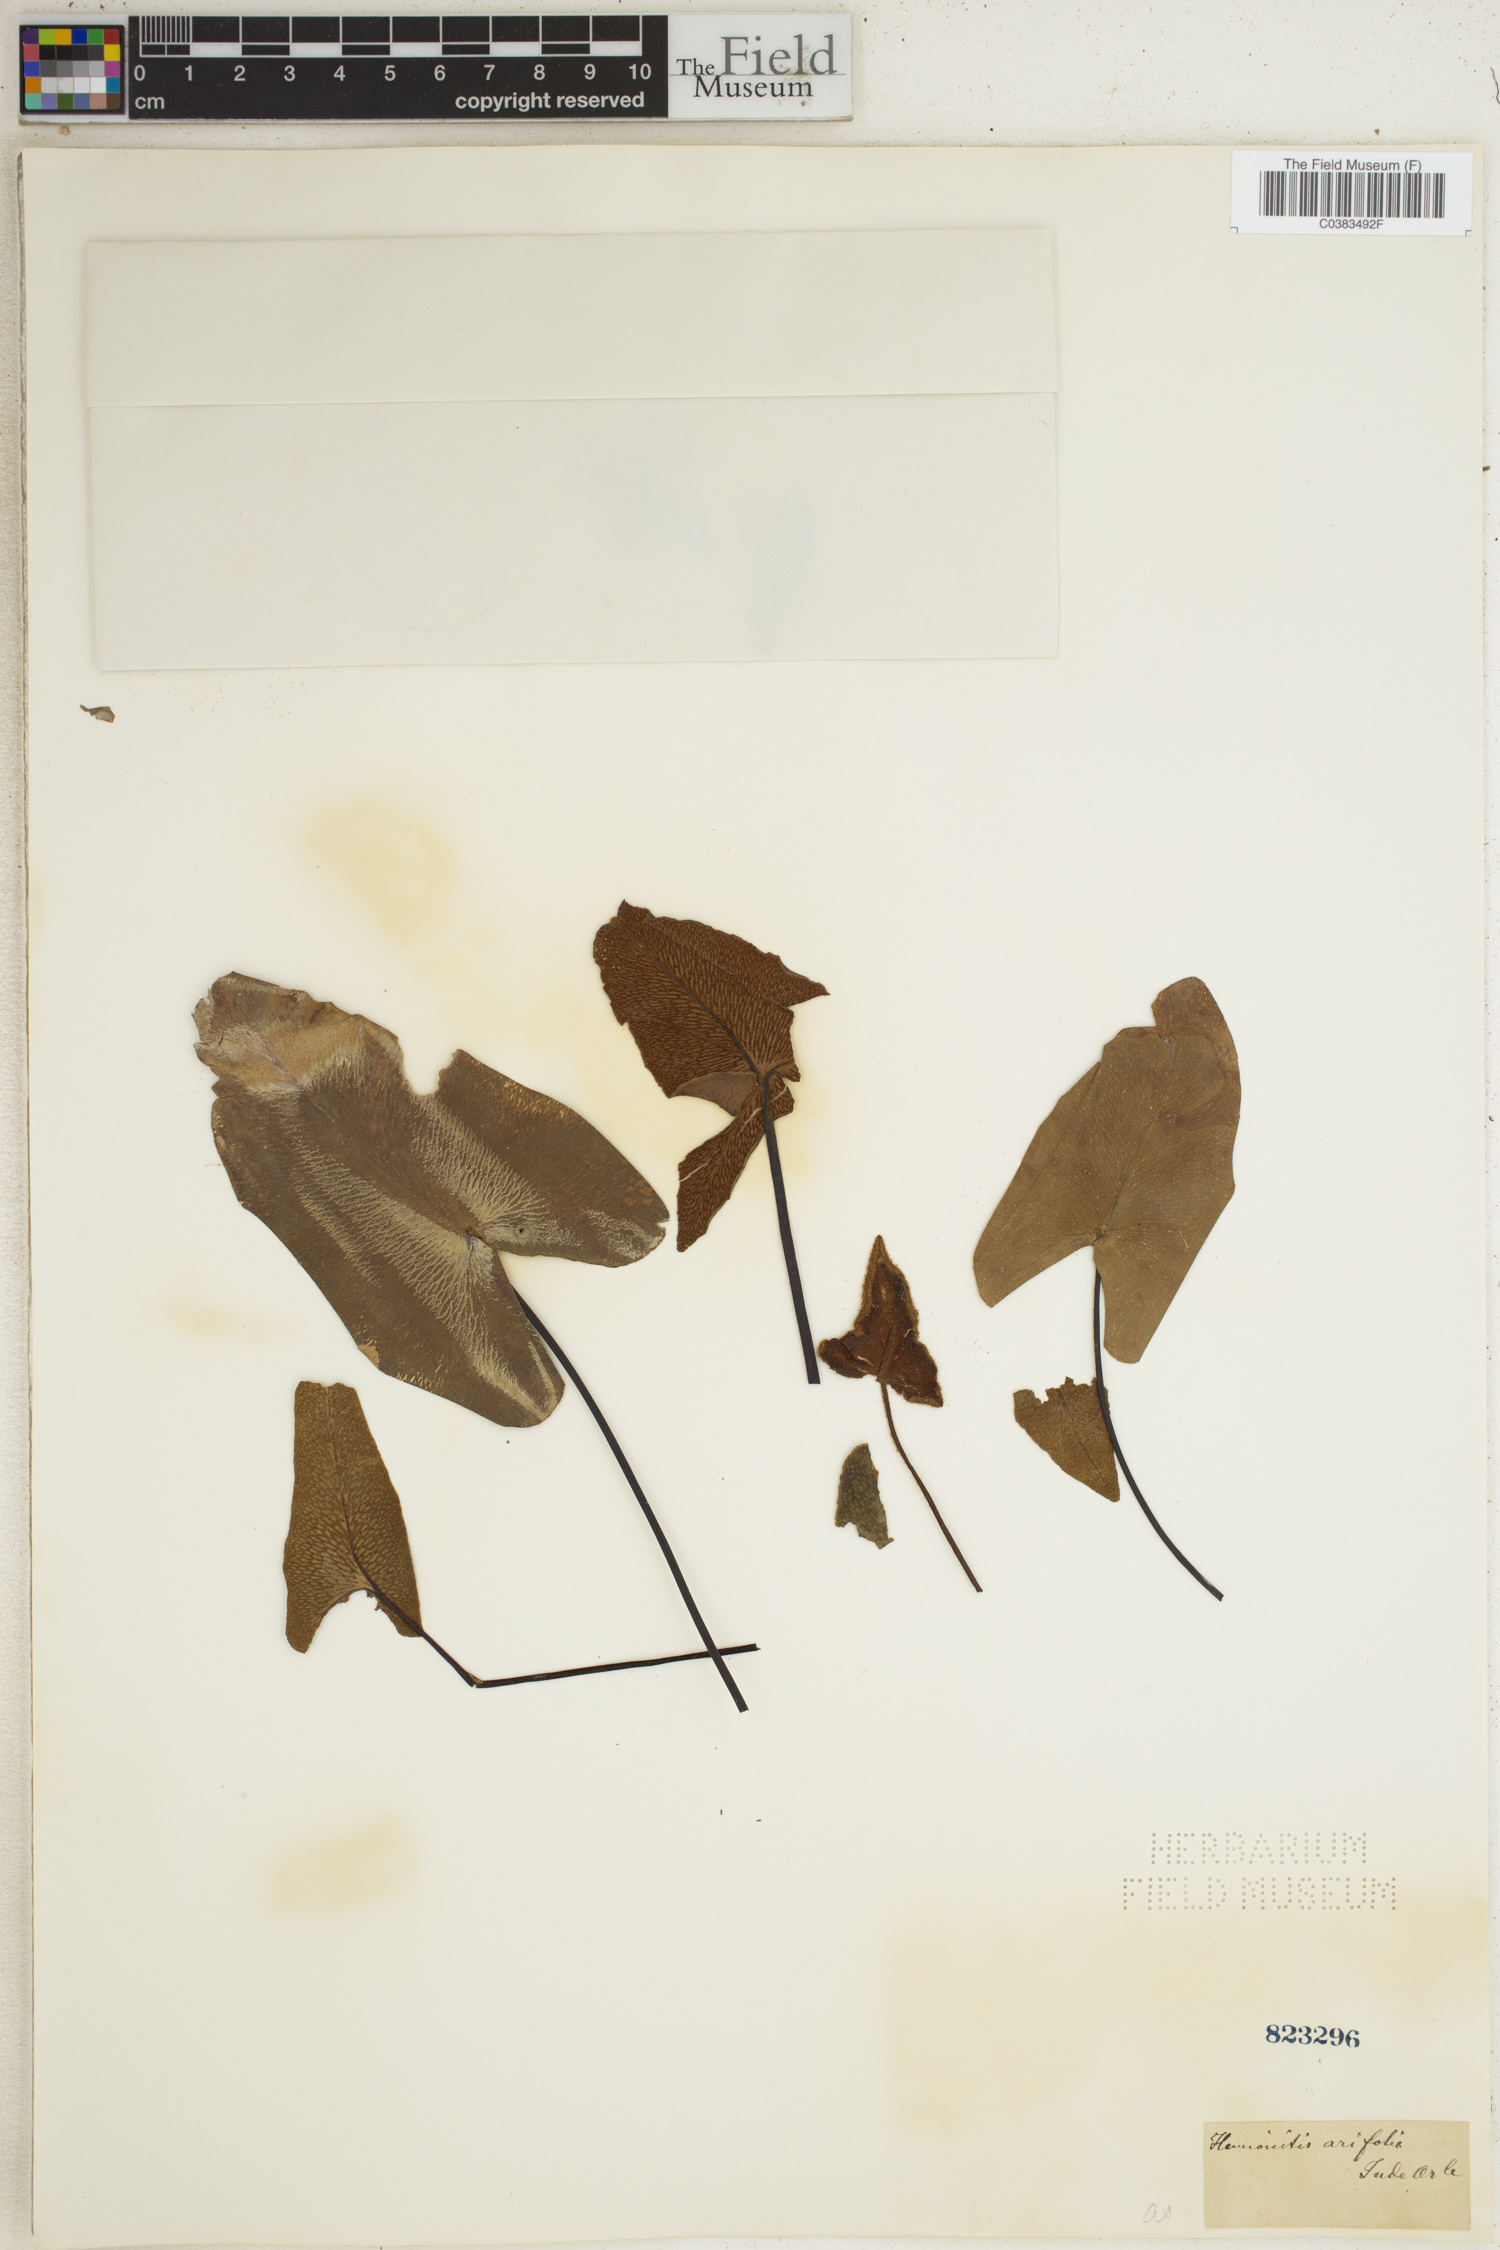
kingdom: Plantae
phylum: Tracheophyta
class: Polypodiopsida
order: Polypodiales
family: Pteridaceae
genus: Acrostichum
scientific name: Acrostichum aureum
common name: Leather fern
